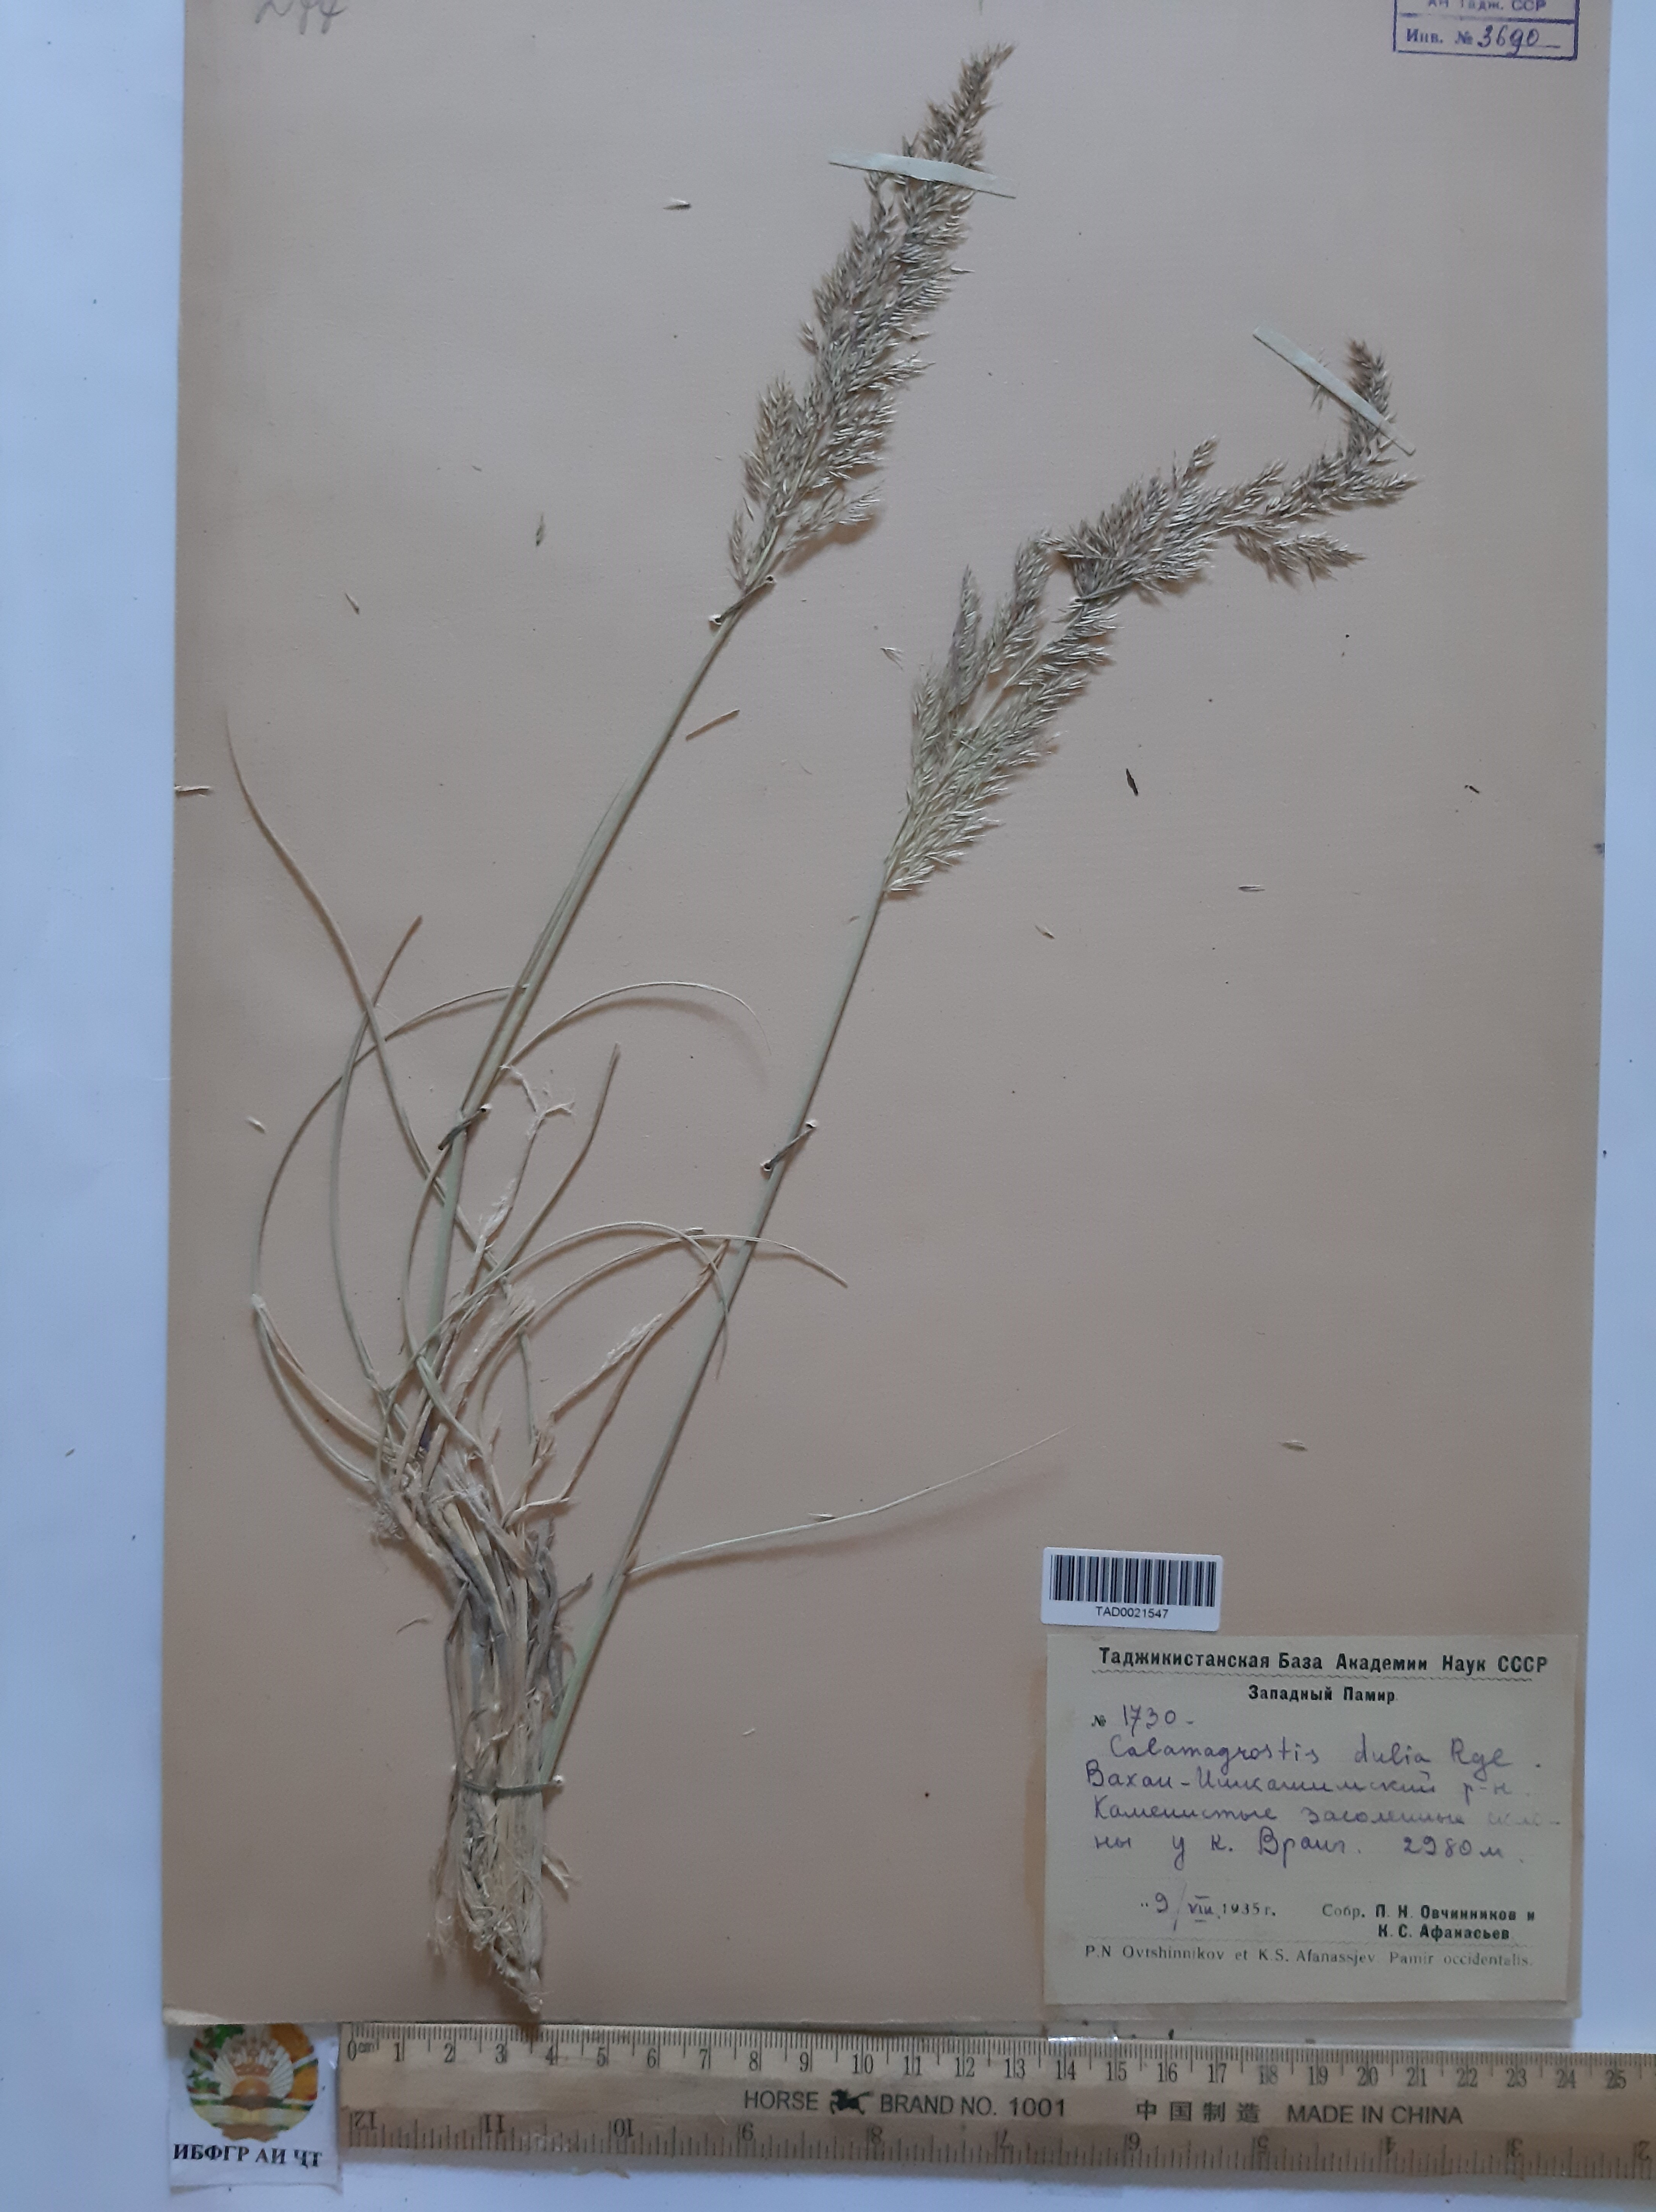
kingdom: Plantae
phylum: Tracheophyta
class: Liliopsida
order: Poales
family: Poaceae
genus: Calamagrostis
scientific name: Calamagrostis pseudophragmites
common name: Coastal small-reed
